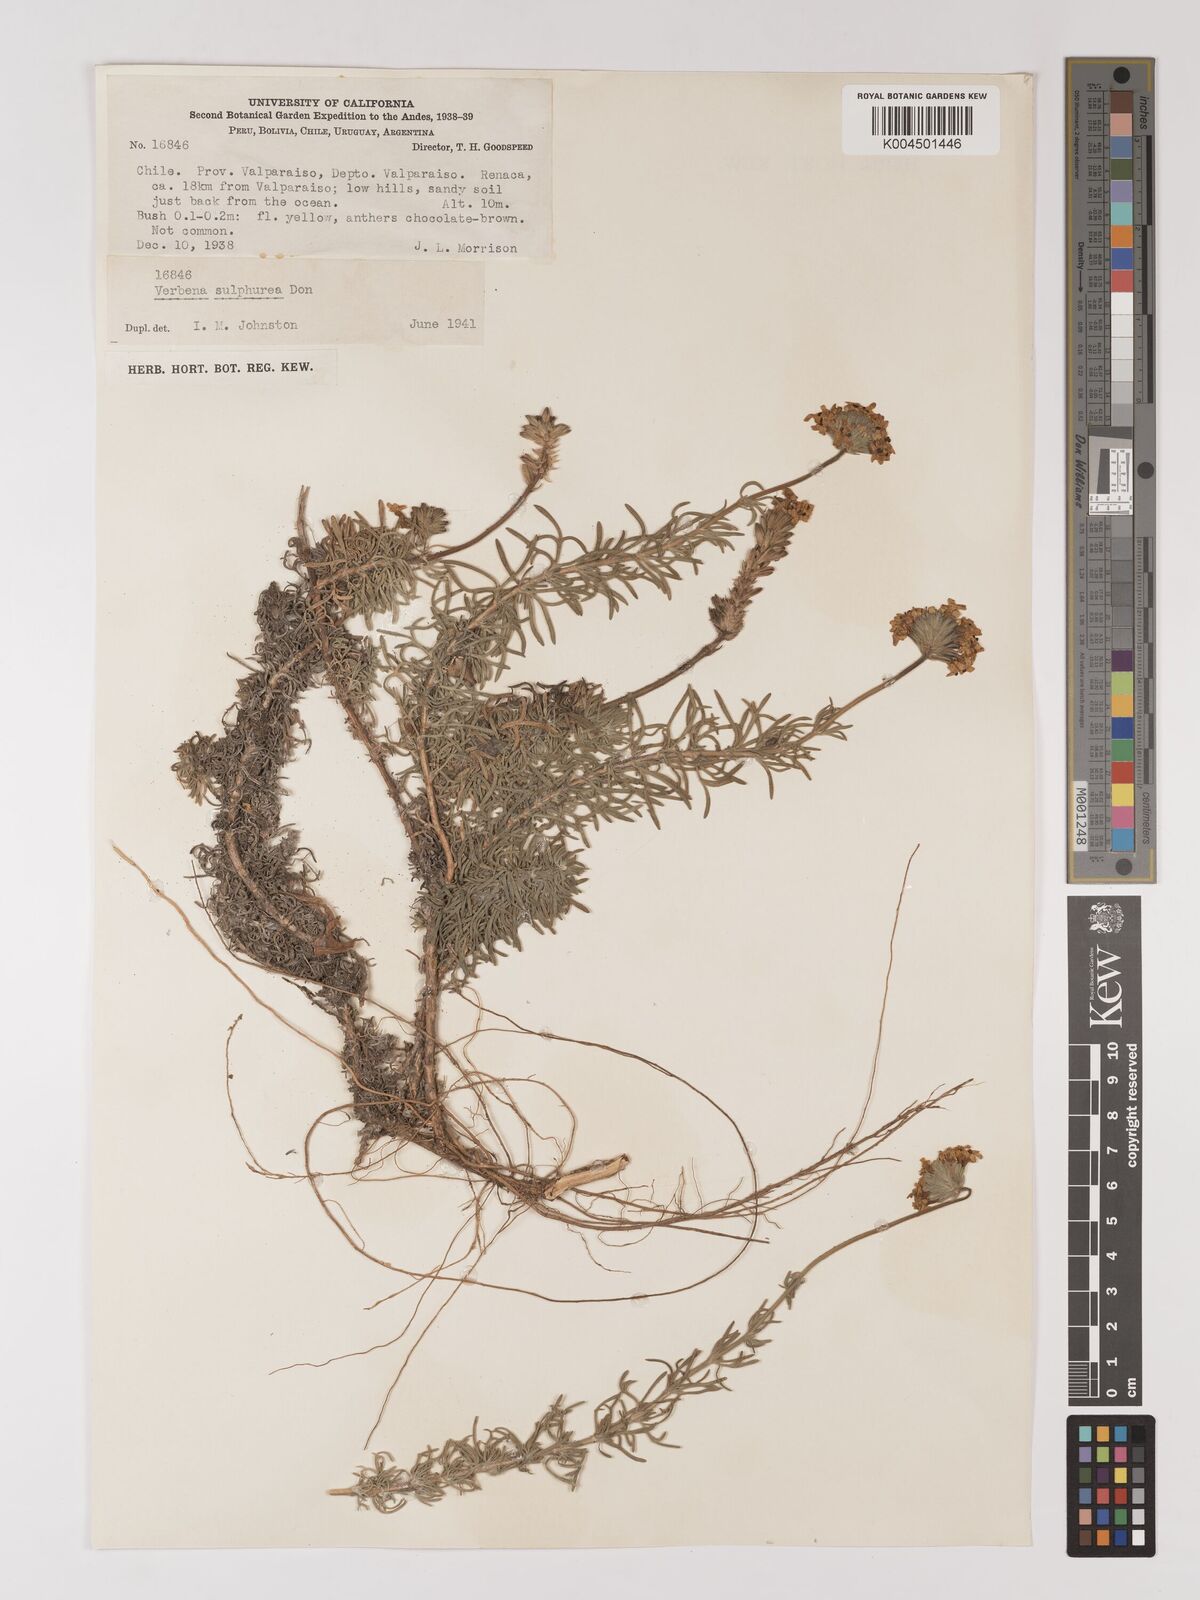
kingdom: Plantae
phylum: Tracheophyta
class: Magnoliopsida
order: Lamiales
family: Verbenaceae
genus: Verbena
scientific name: Verbena sulphurea
